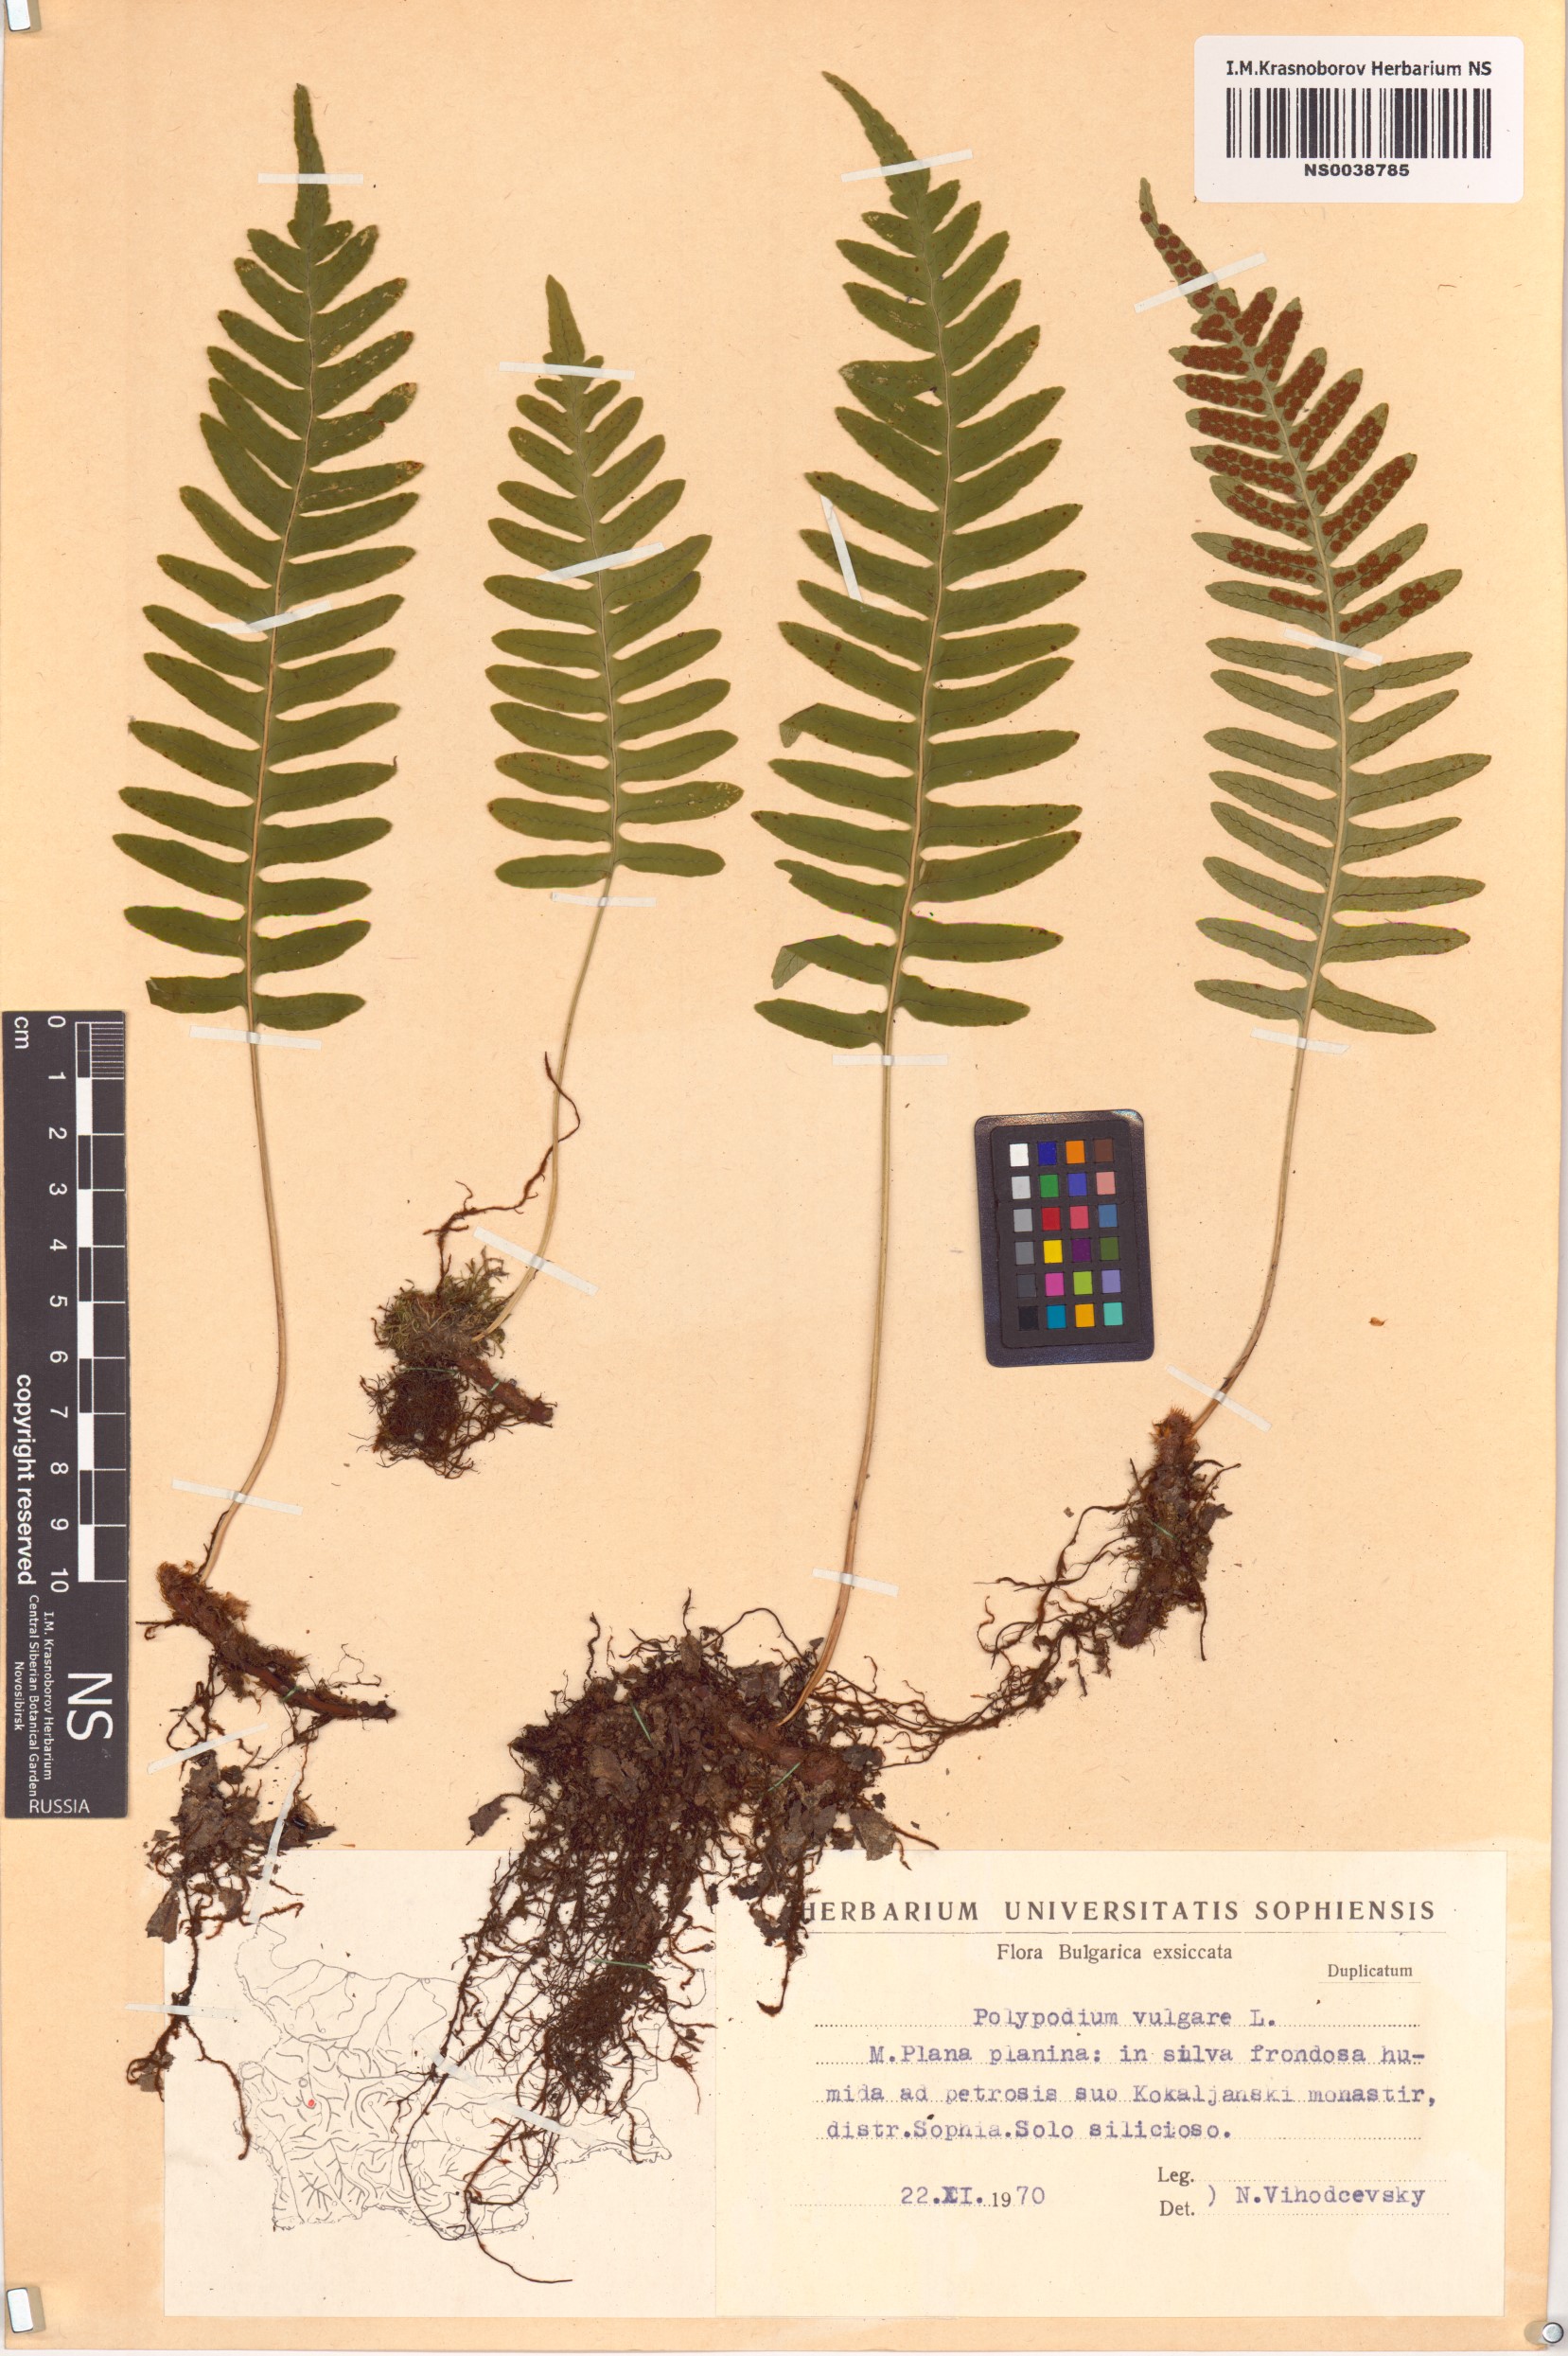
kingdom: Plantae
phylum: Tracheophyta
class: Polypodiopsida
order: Polypodiales
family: Polypodiaceae
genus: Polypodium
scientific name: Polypodium vulgare
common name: Common polypody
